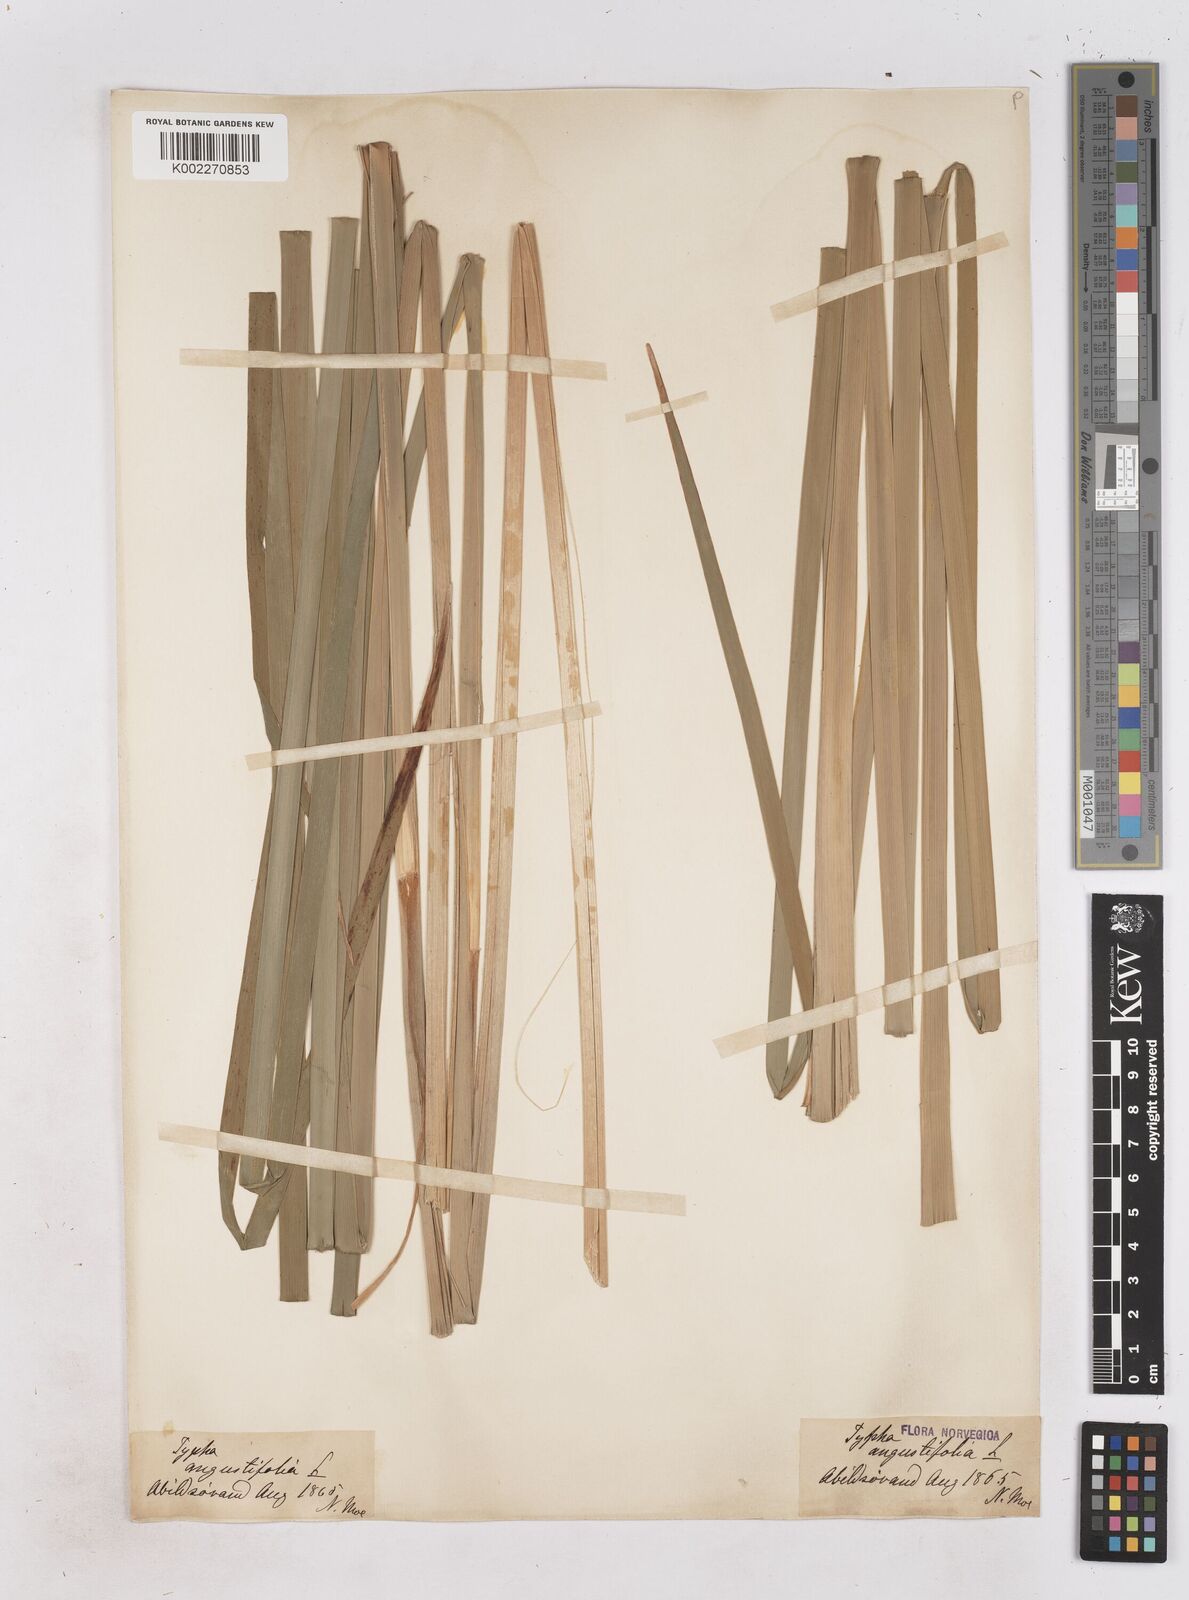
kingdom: Plantae
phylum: Tracheophyta
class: Liliopsida
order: Poales
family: Typhaceae
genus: Typha
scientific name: Typha
